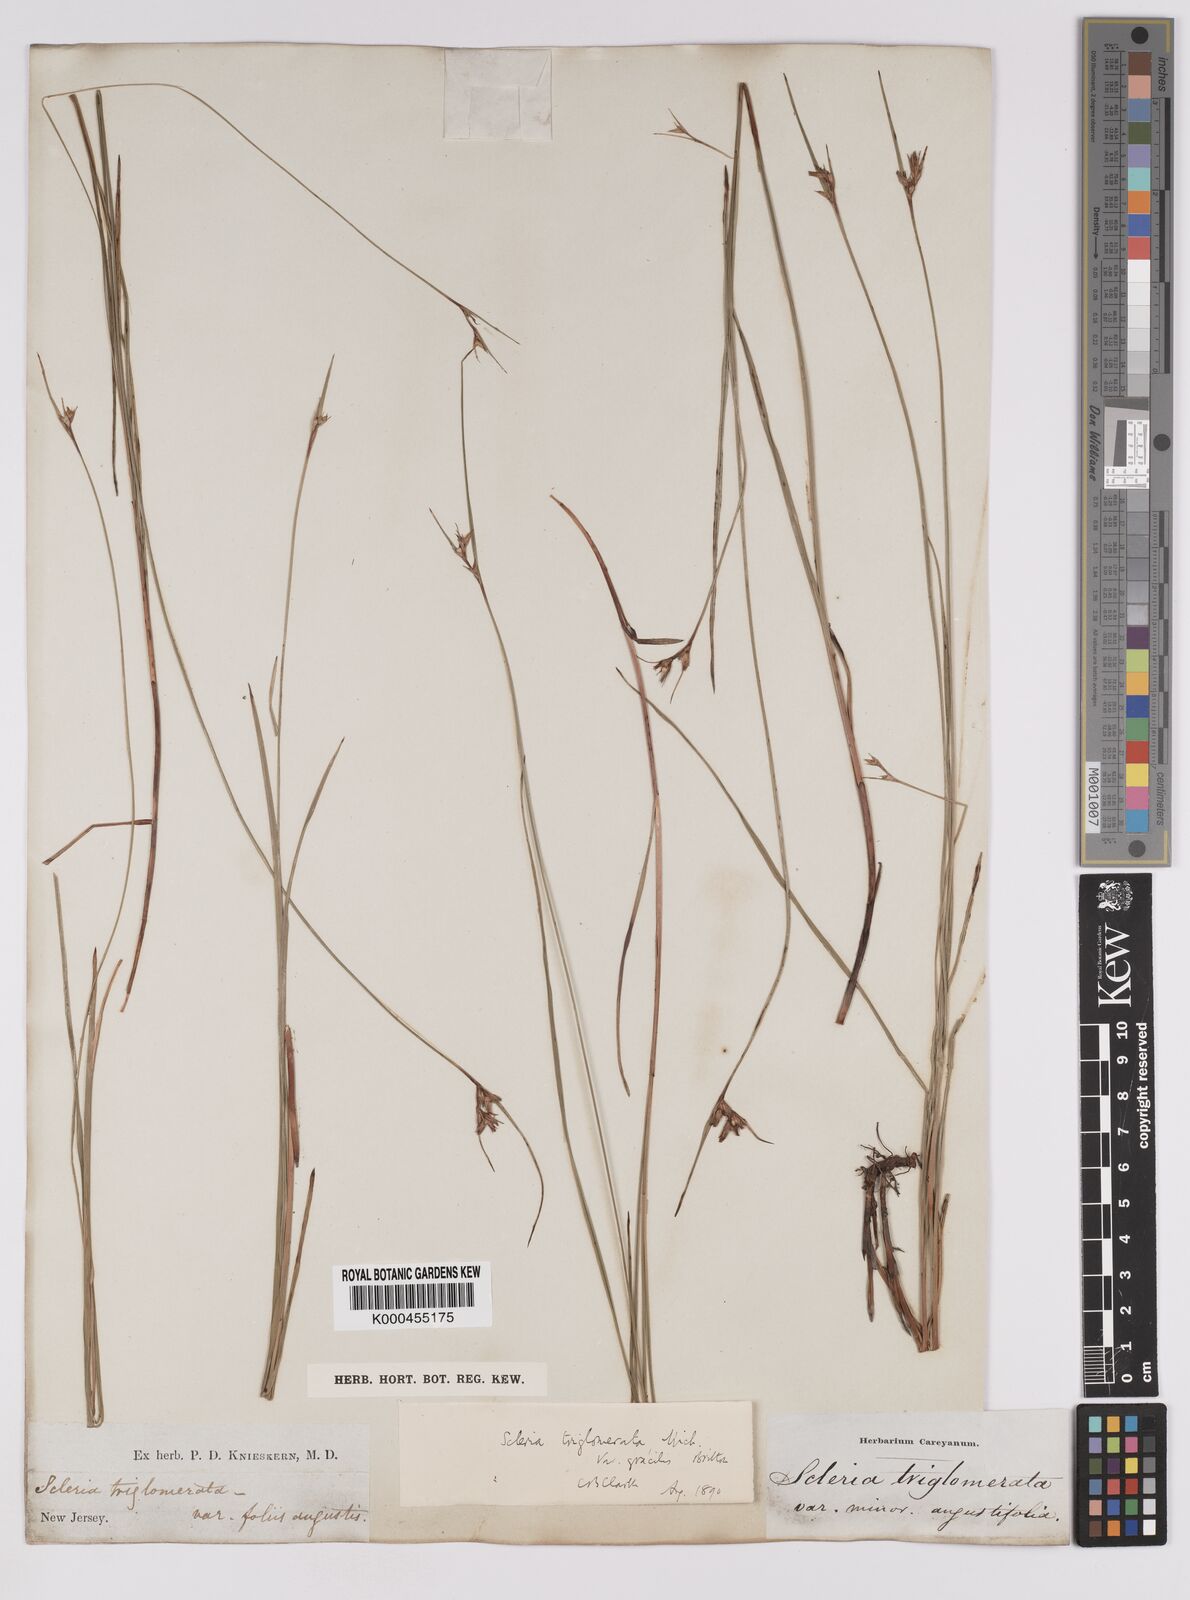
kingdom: Plantae
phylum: Tracheophyta
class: Liliopsida
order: Poales
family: Cyperaceae
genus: Scleria
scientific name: Scleria triglomerata
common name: Whip nutrush
